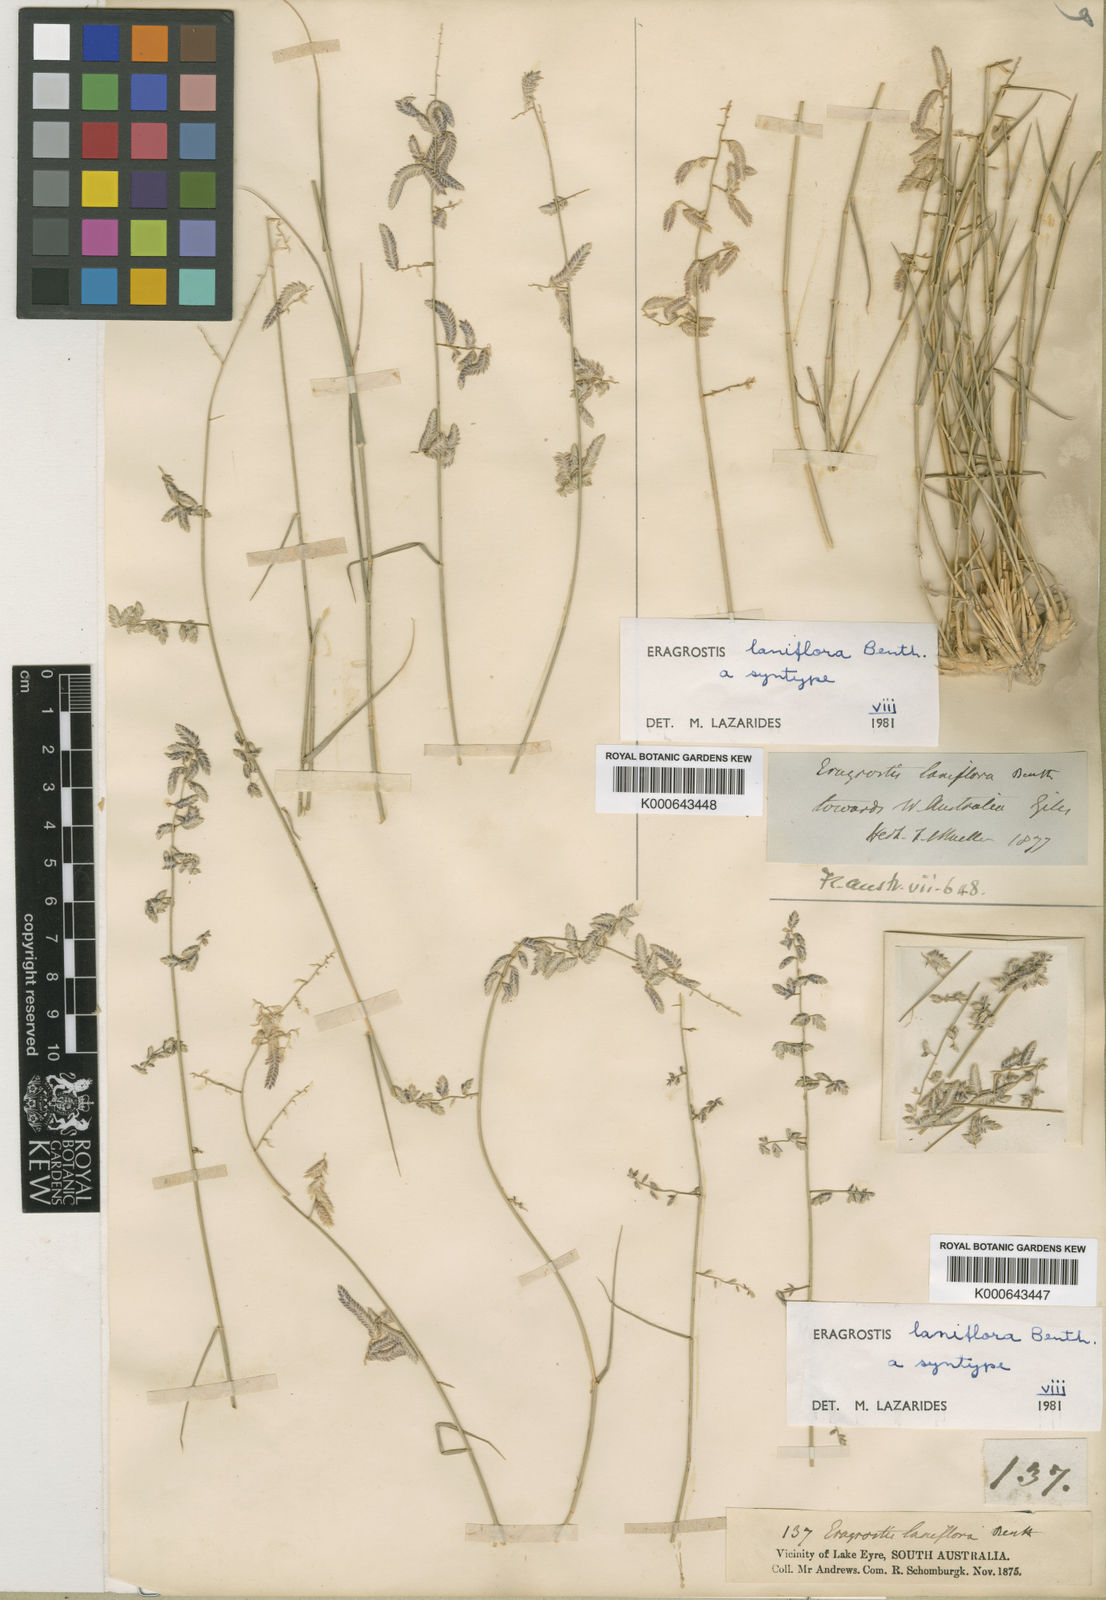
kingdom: Plantae
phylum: Tracheophyta
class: Liliopsida
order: Poales
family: Poaceae
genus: Eragrostis
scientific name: Eragrostis laniflora
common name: Woolly-flower lovegrass
